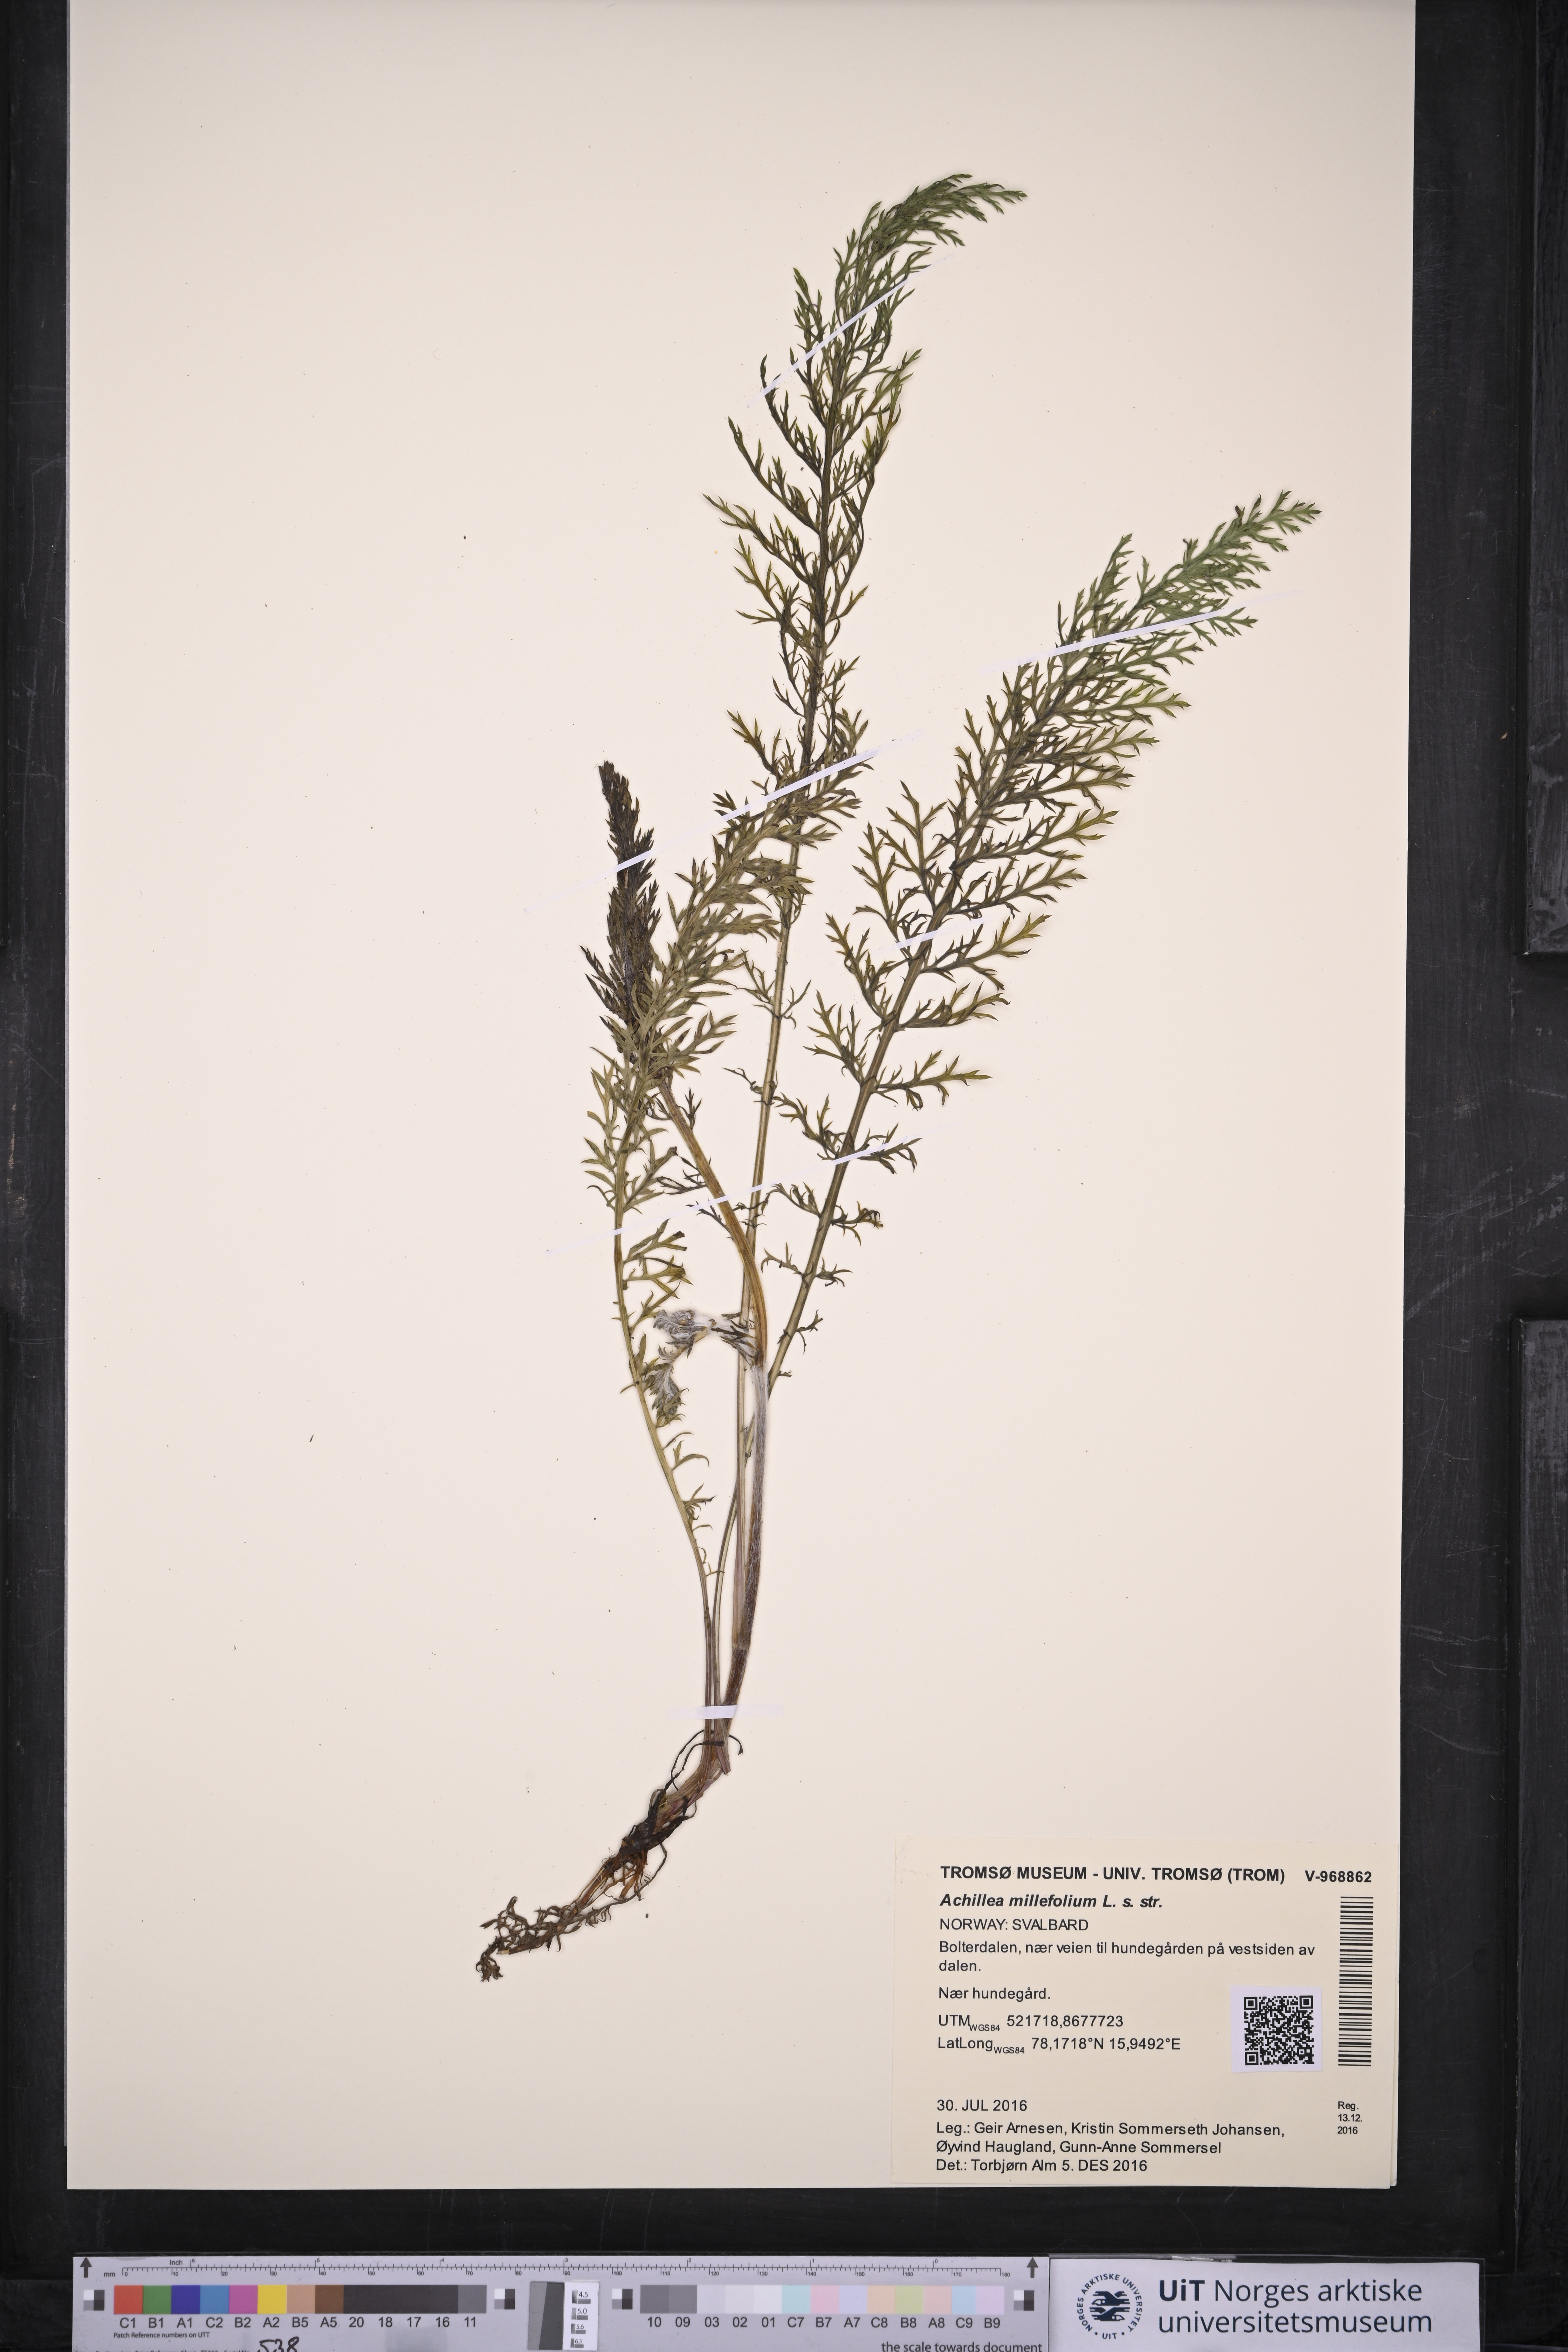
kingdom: Plantae
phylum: Tracheophyta
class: Magnoliopsida
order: Asterales
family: Asteraceae
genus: Achillea
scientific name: Achillea millefolium
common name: Yarrow
